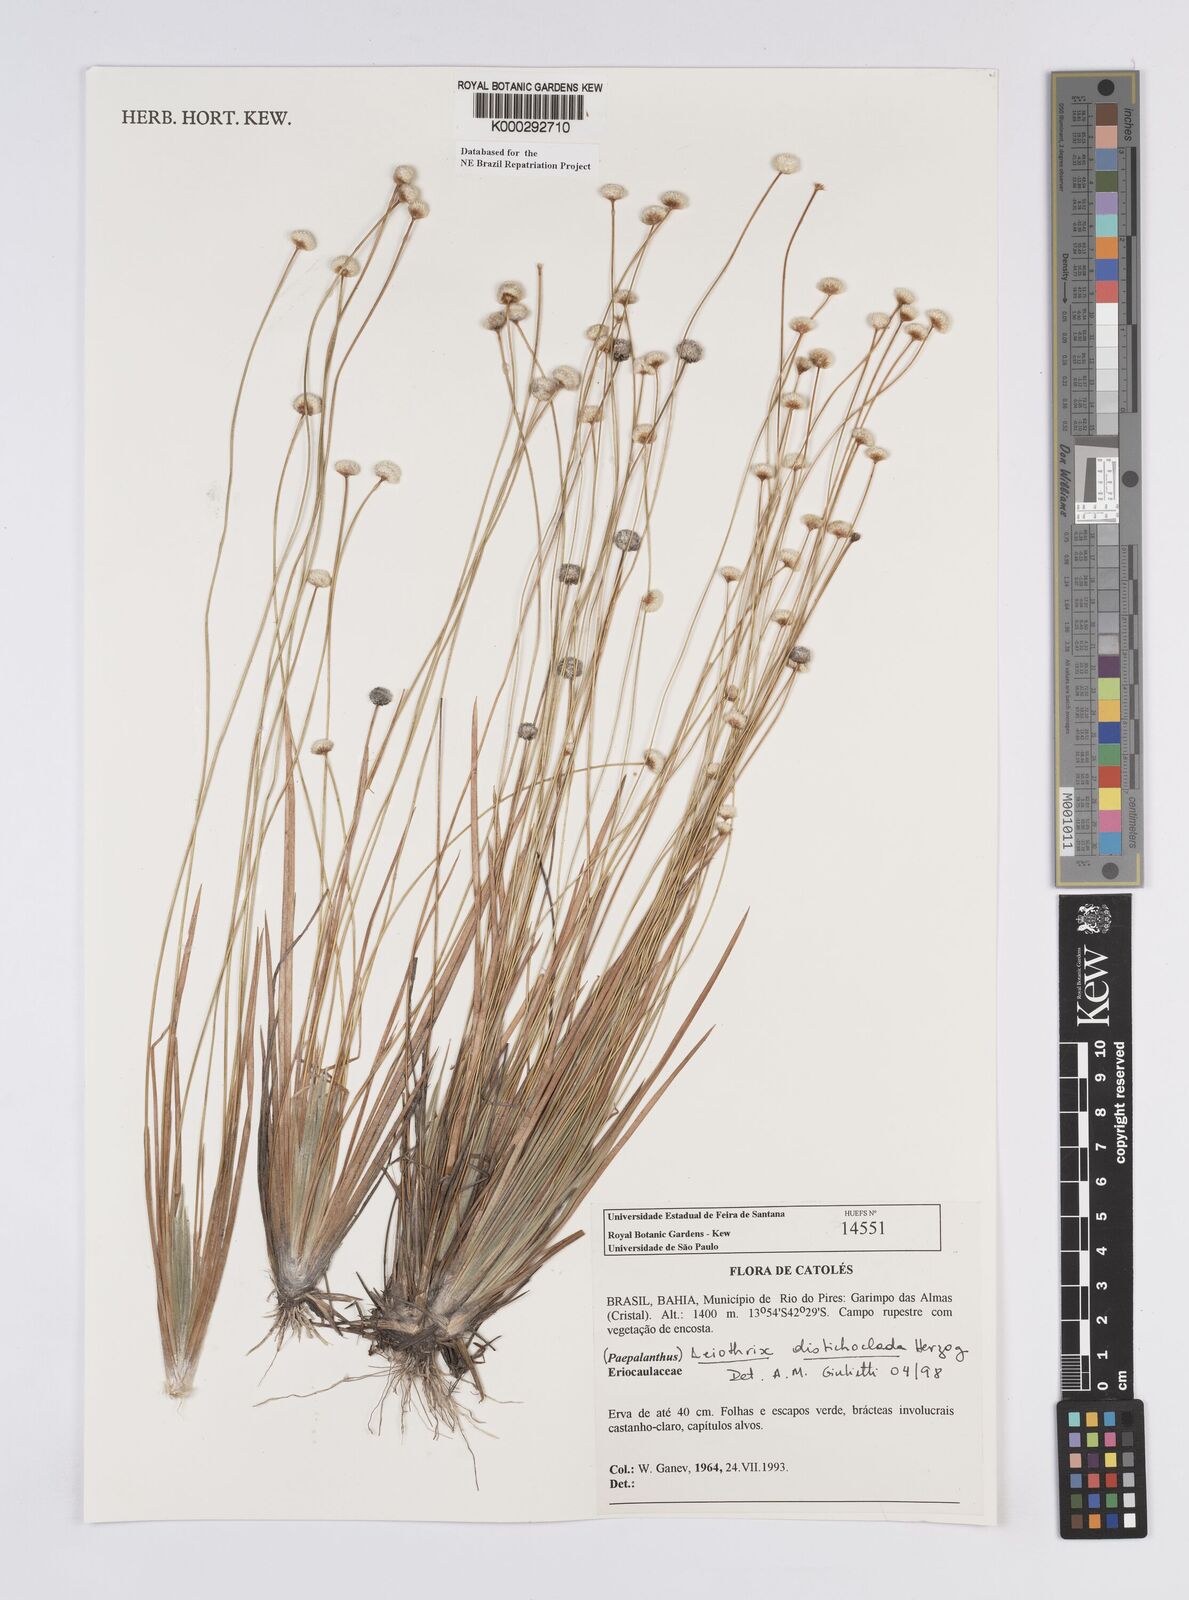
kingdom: Plantae
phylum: Tracheophyta
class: Liliopsida
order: Poales
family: Eriocaulaceae
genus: Leiothrix
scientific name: Leiothrix distichoclada
